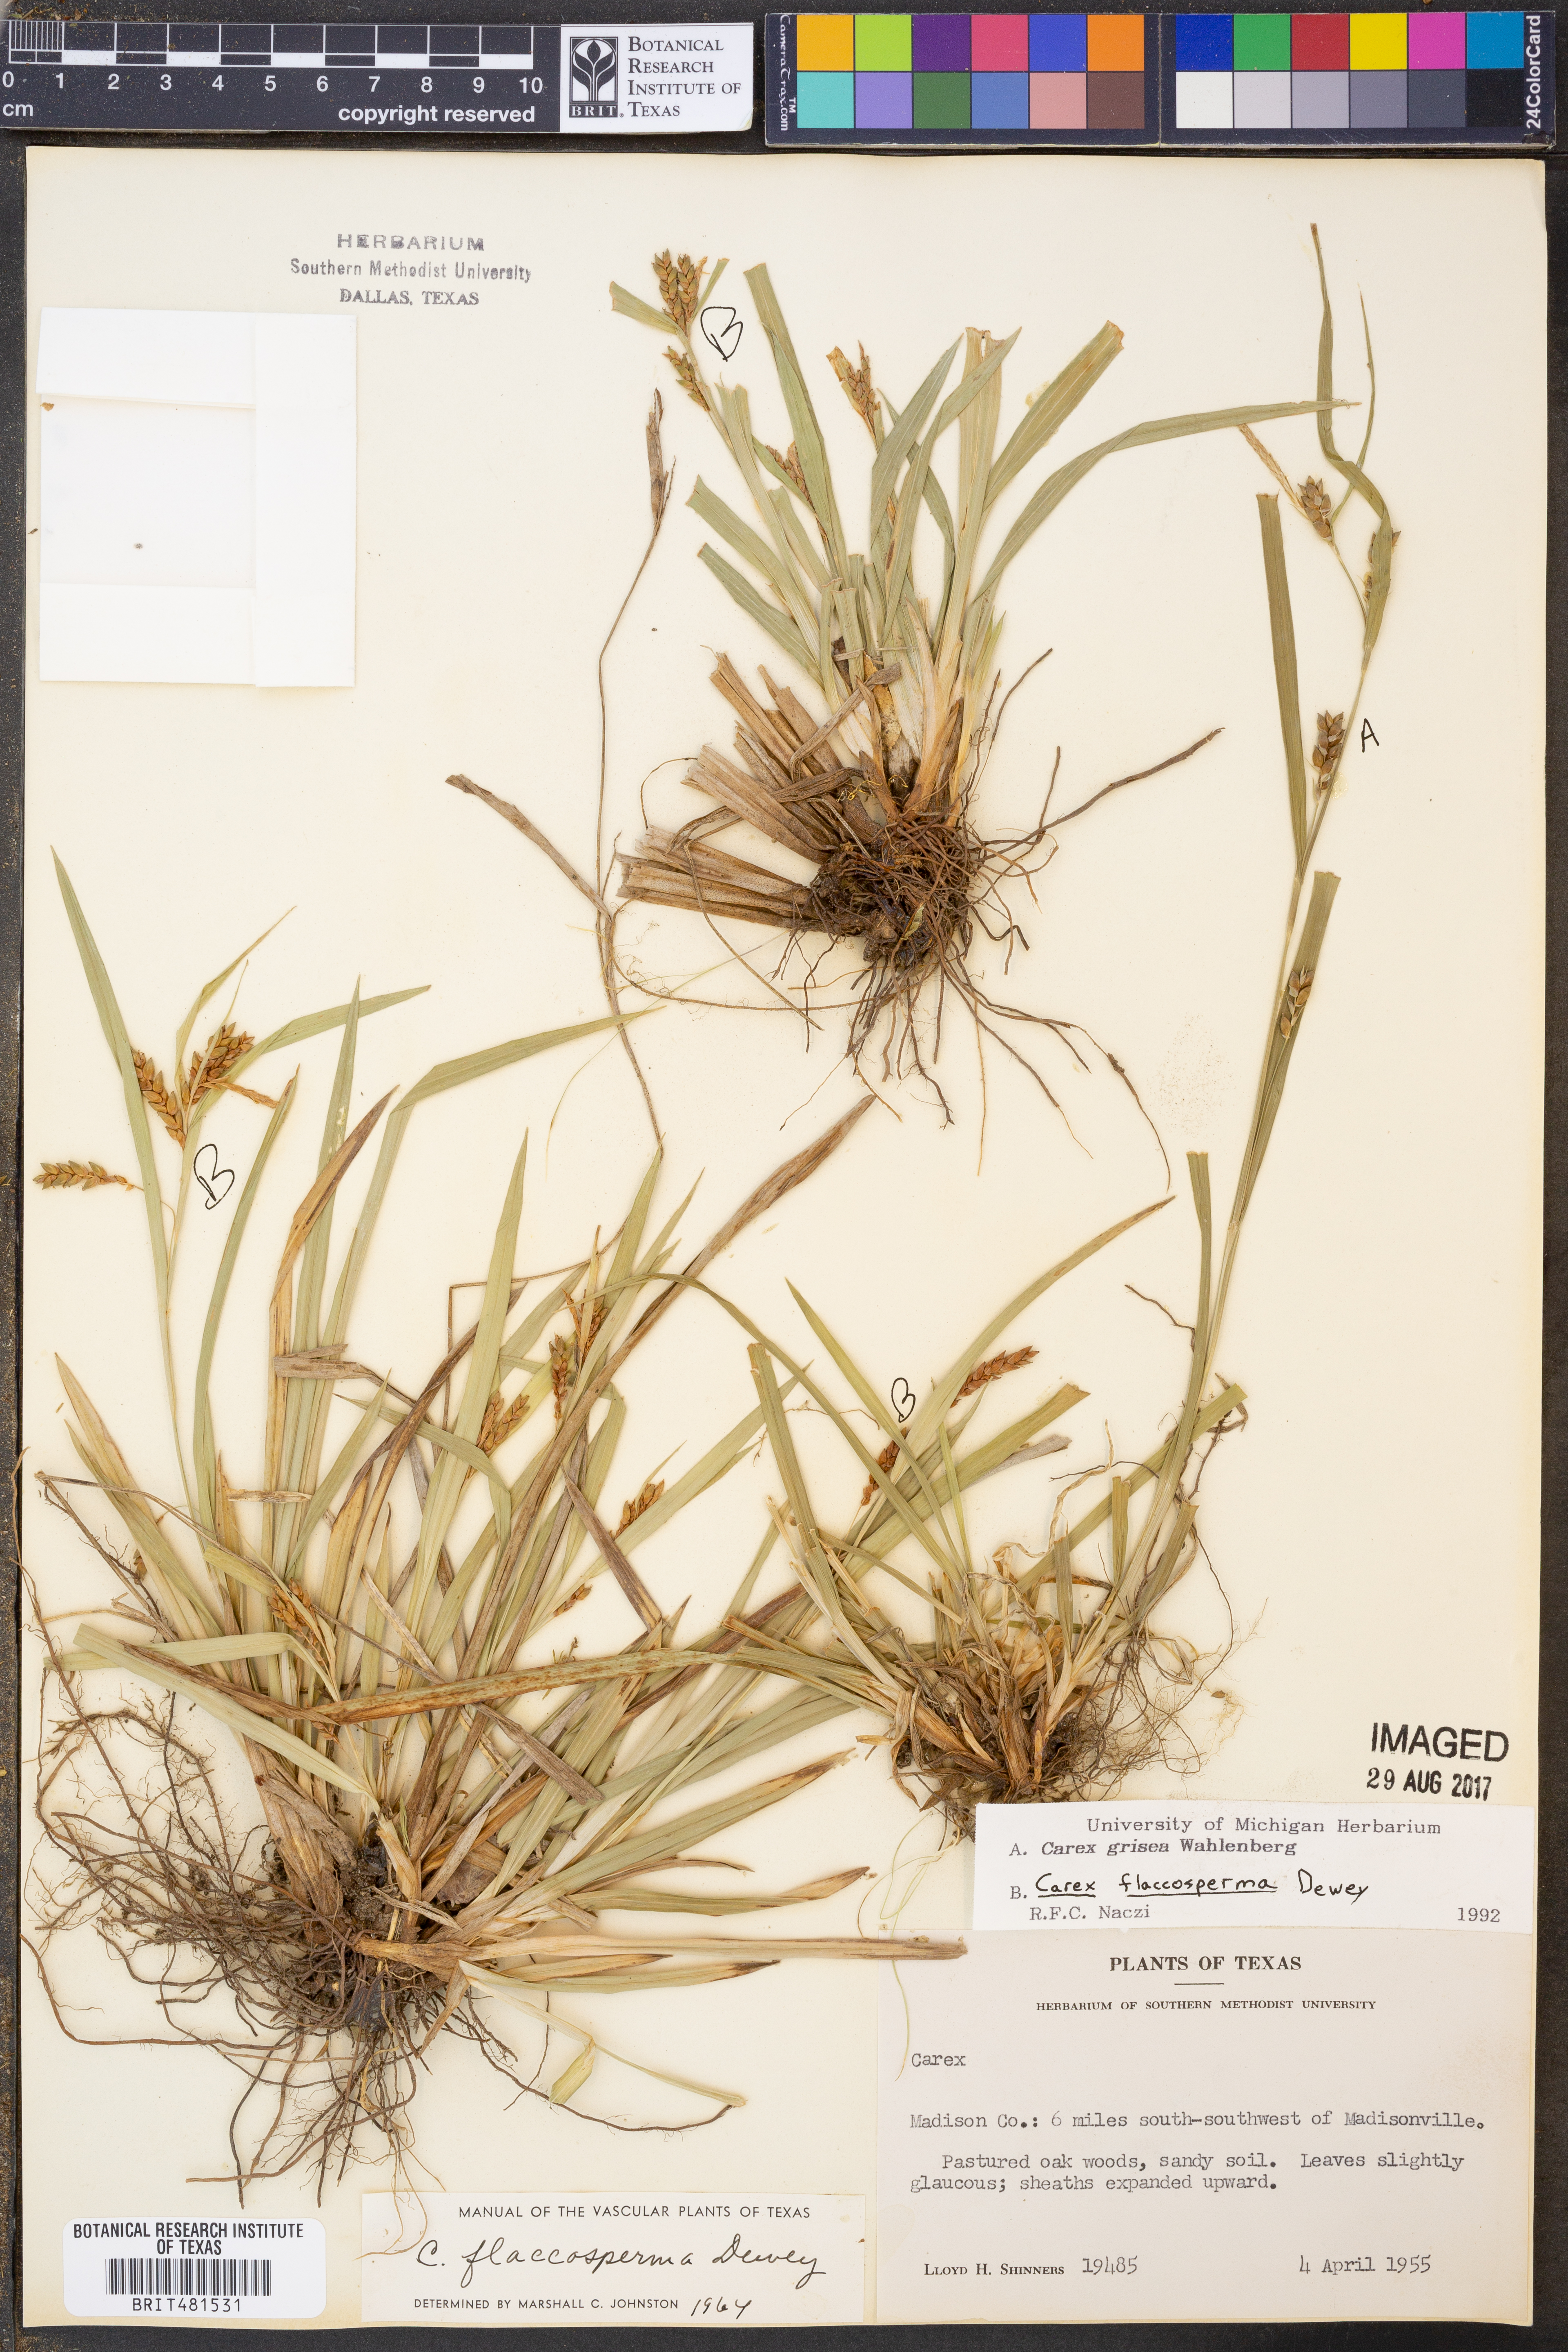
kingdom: Plantae
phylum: Tracheophyta
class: Liliopsida
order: Poales
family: Cyperaceae
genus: Carex
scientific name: Carex grisea
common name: Eastern narrow-leaved sedge
